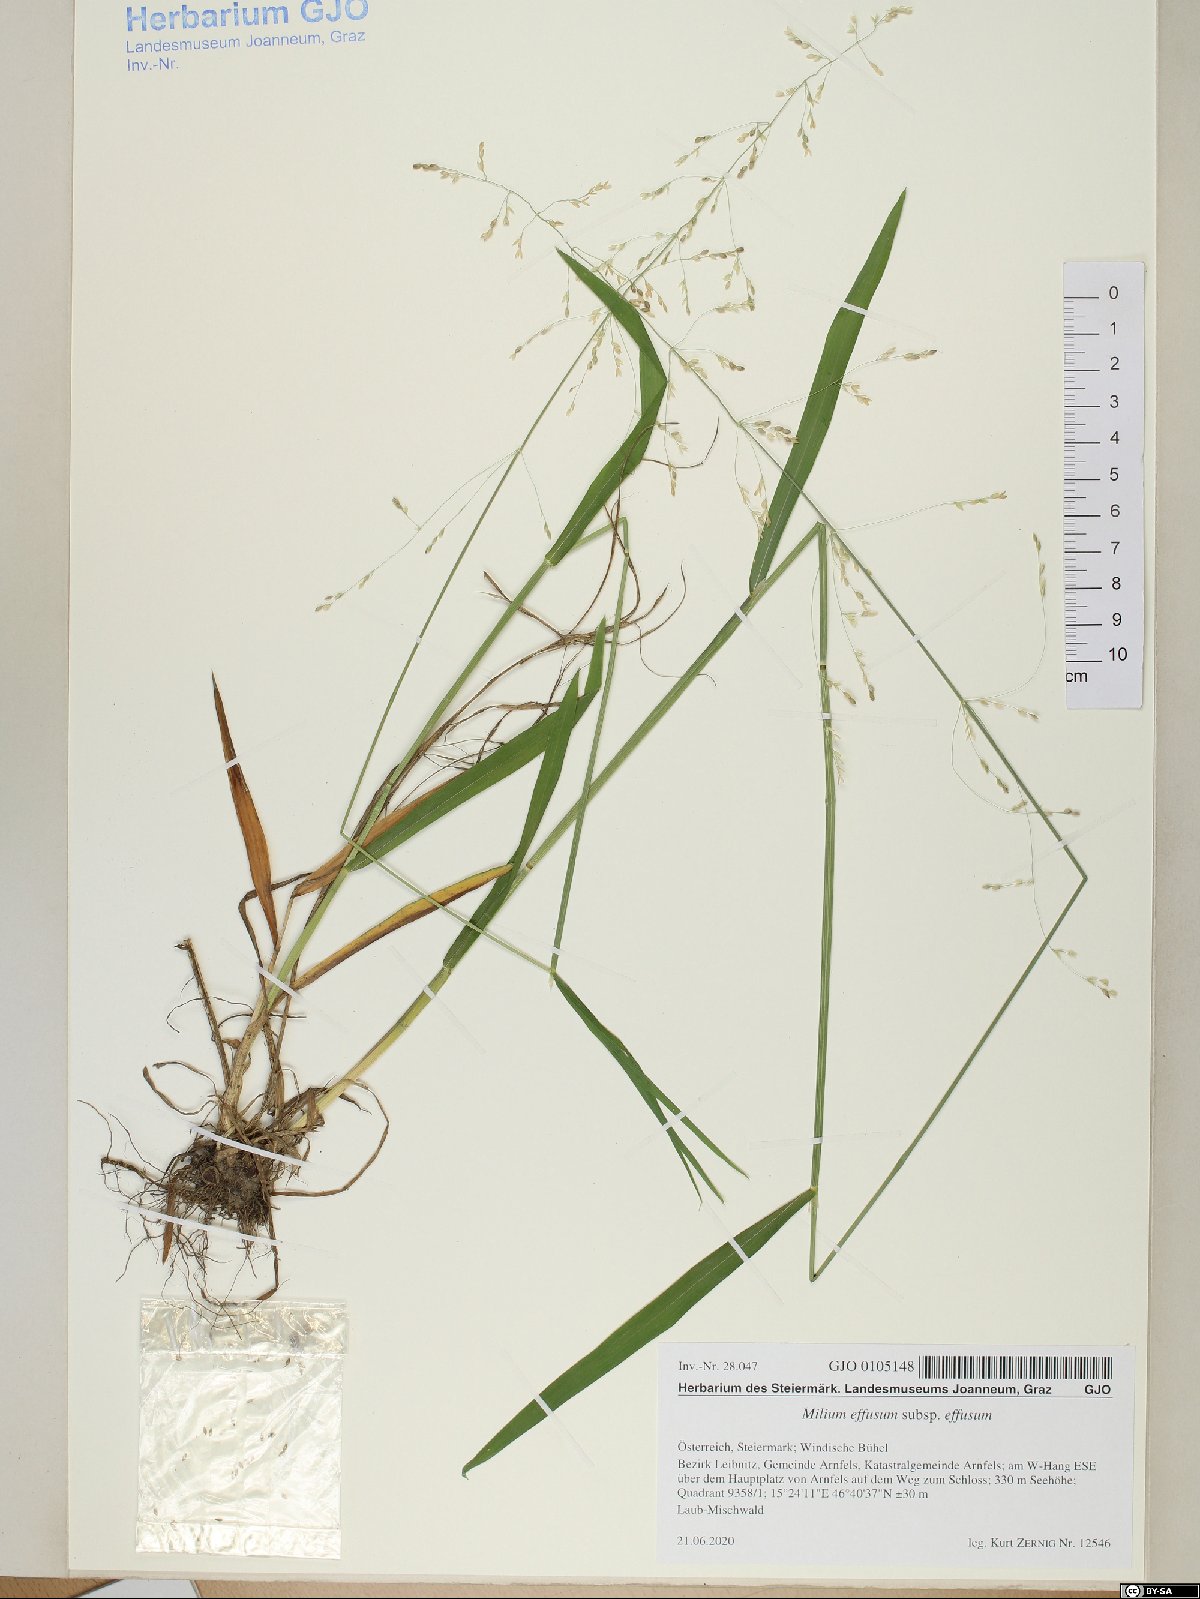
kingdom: Plantae
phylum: Tracheophyta
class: Liliopsida
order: Poales
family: Poaceae
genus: Milium
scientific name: Milium effusum
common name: Wood millet
